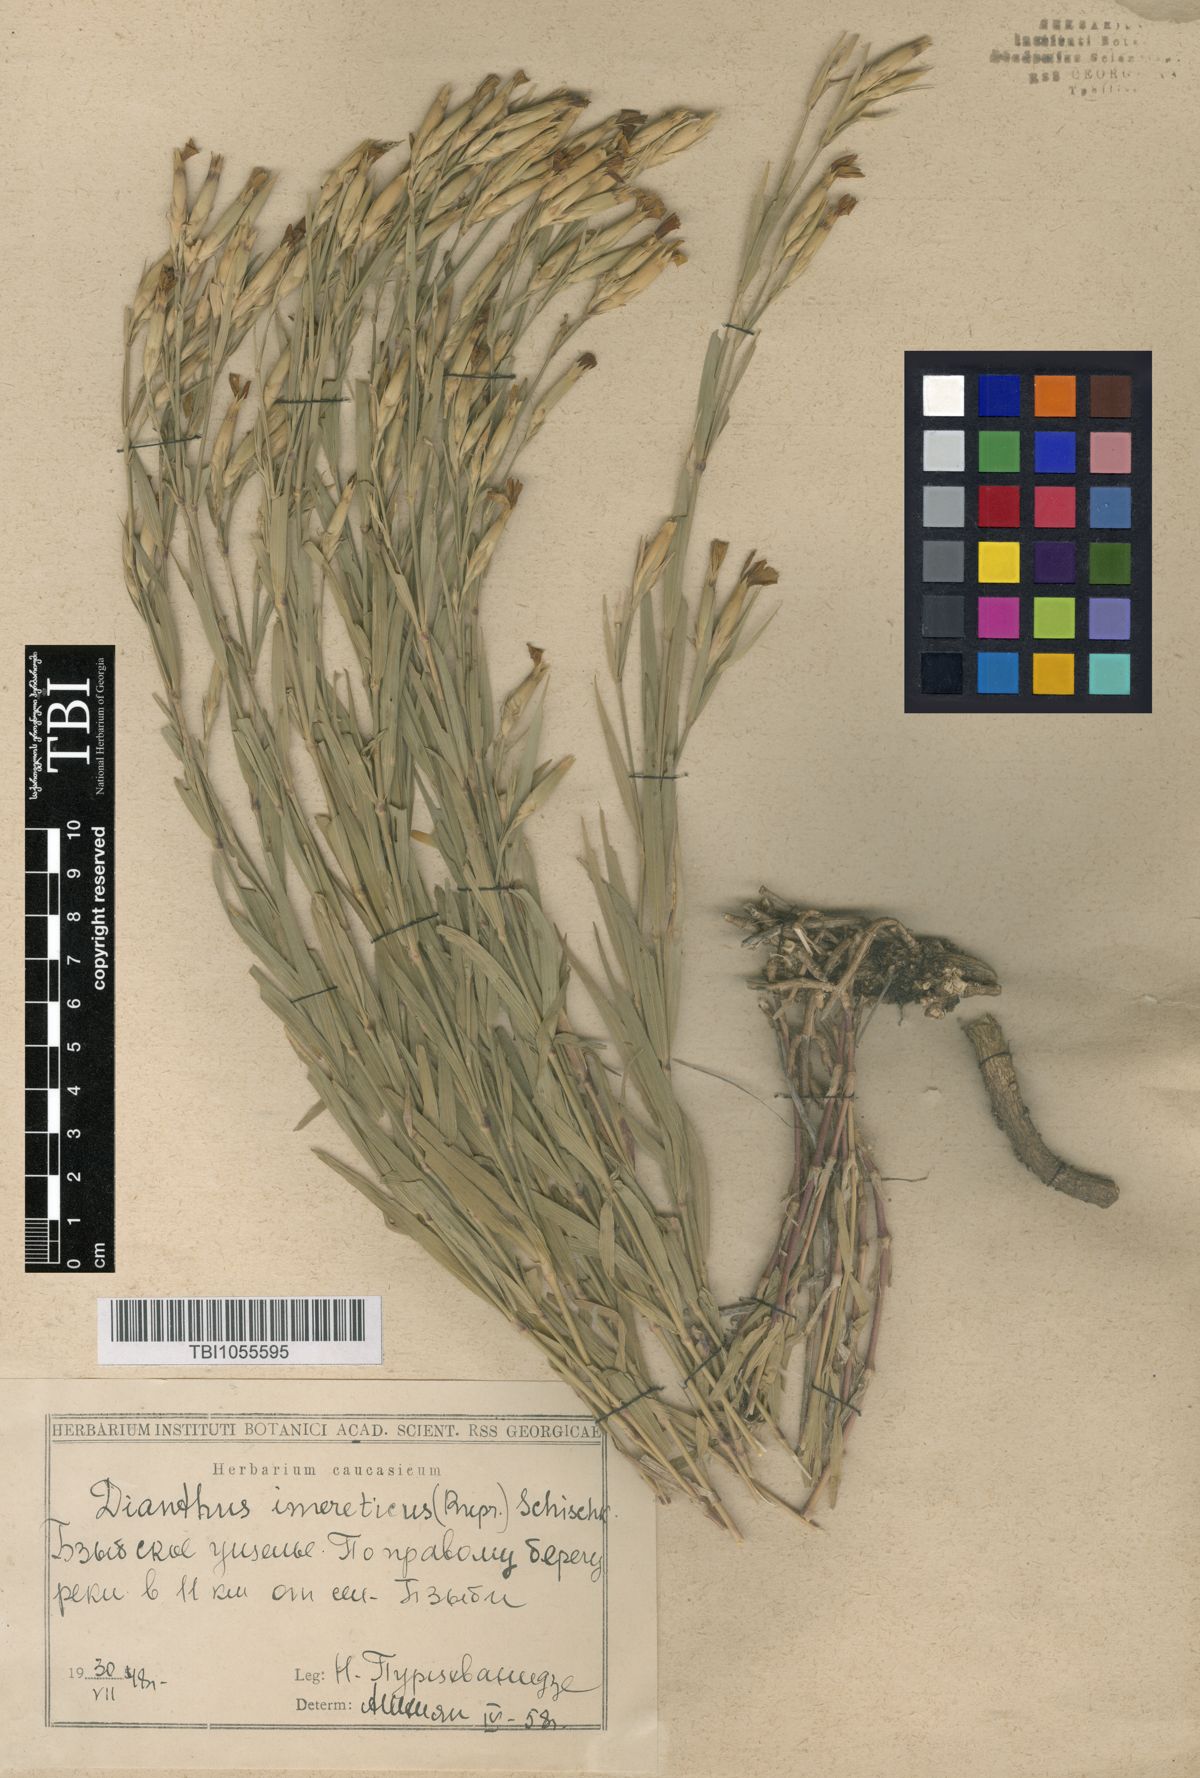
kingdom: Plantae
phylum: Tracheophyta
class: Magnoliopsida
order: Caryophyllales
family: Caryophyllaceae
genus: Dianthus
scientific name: Dianthus imereticus
